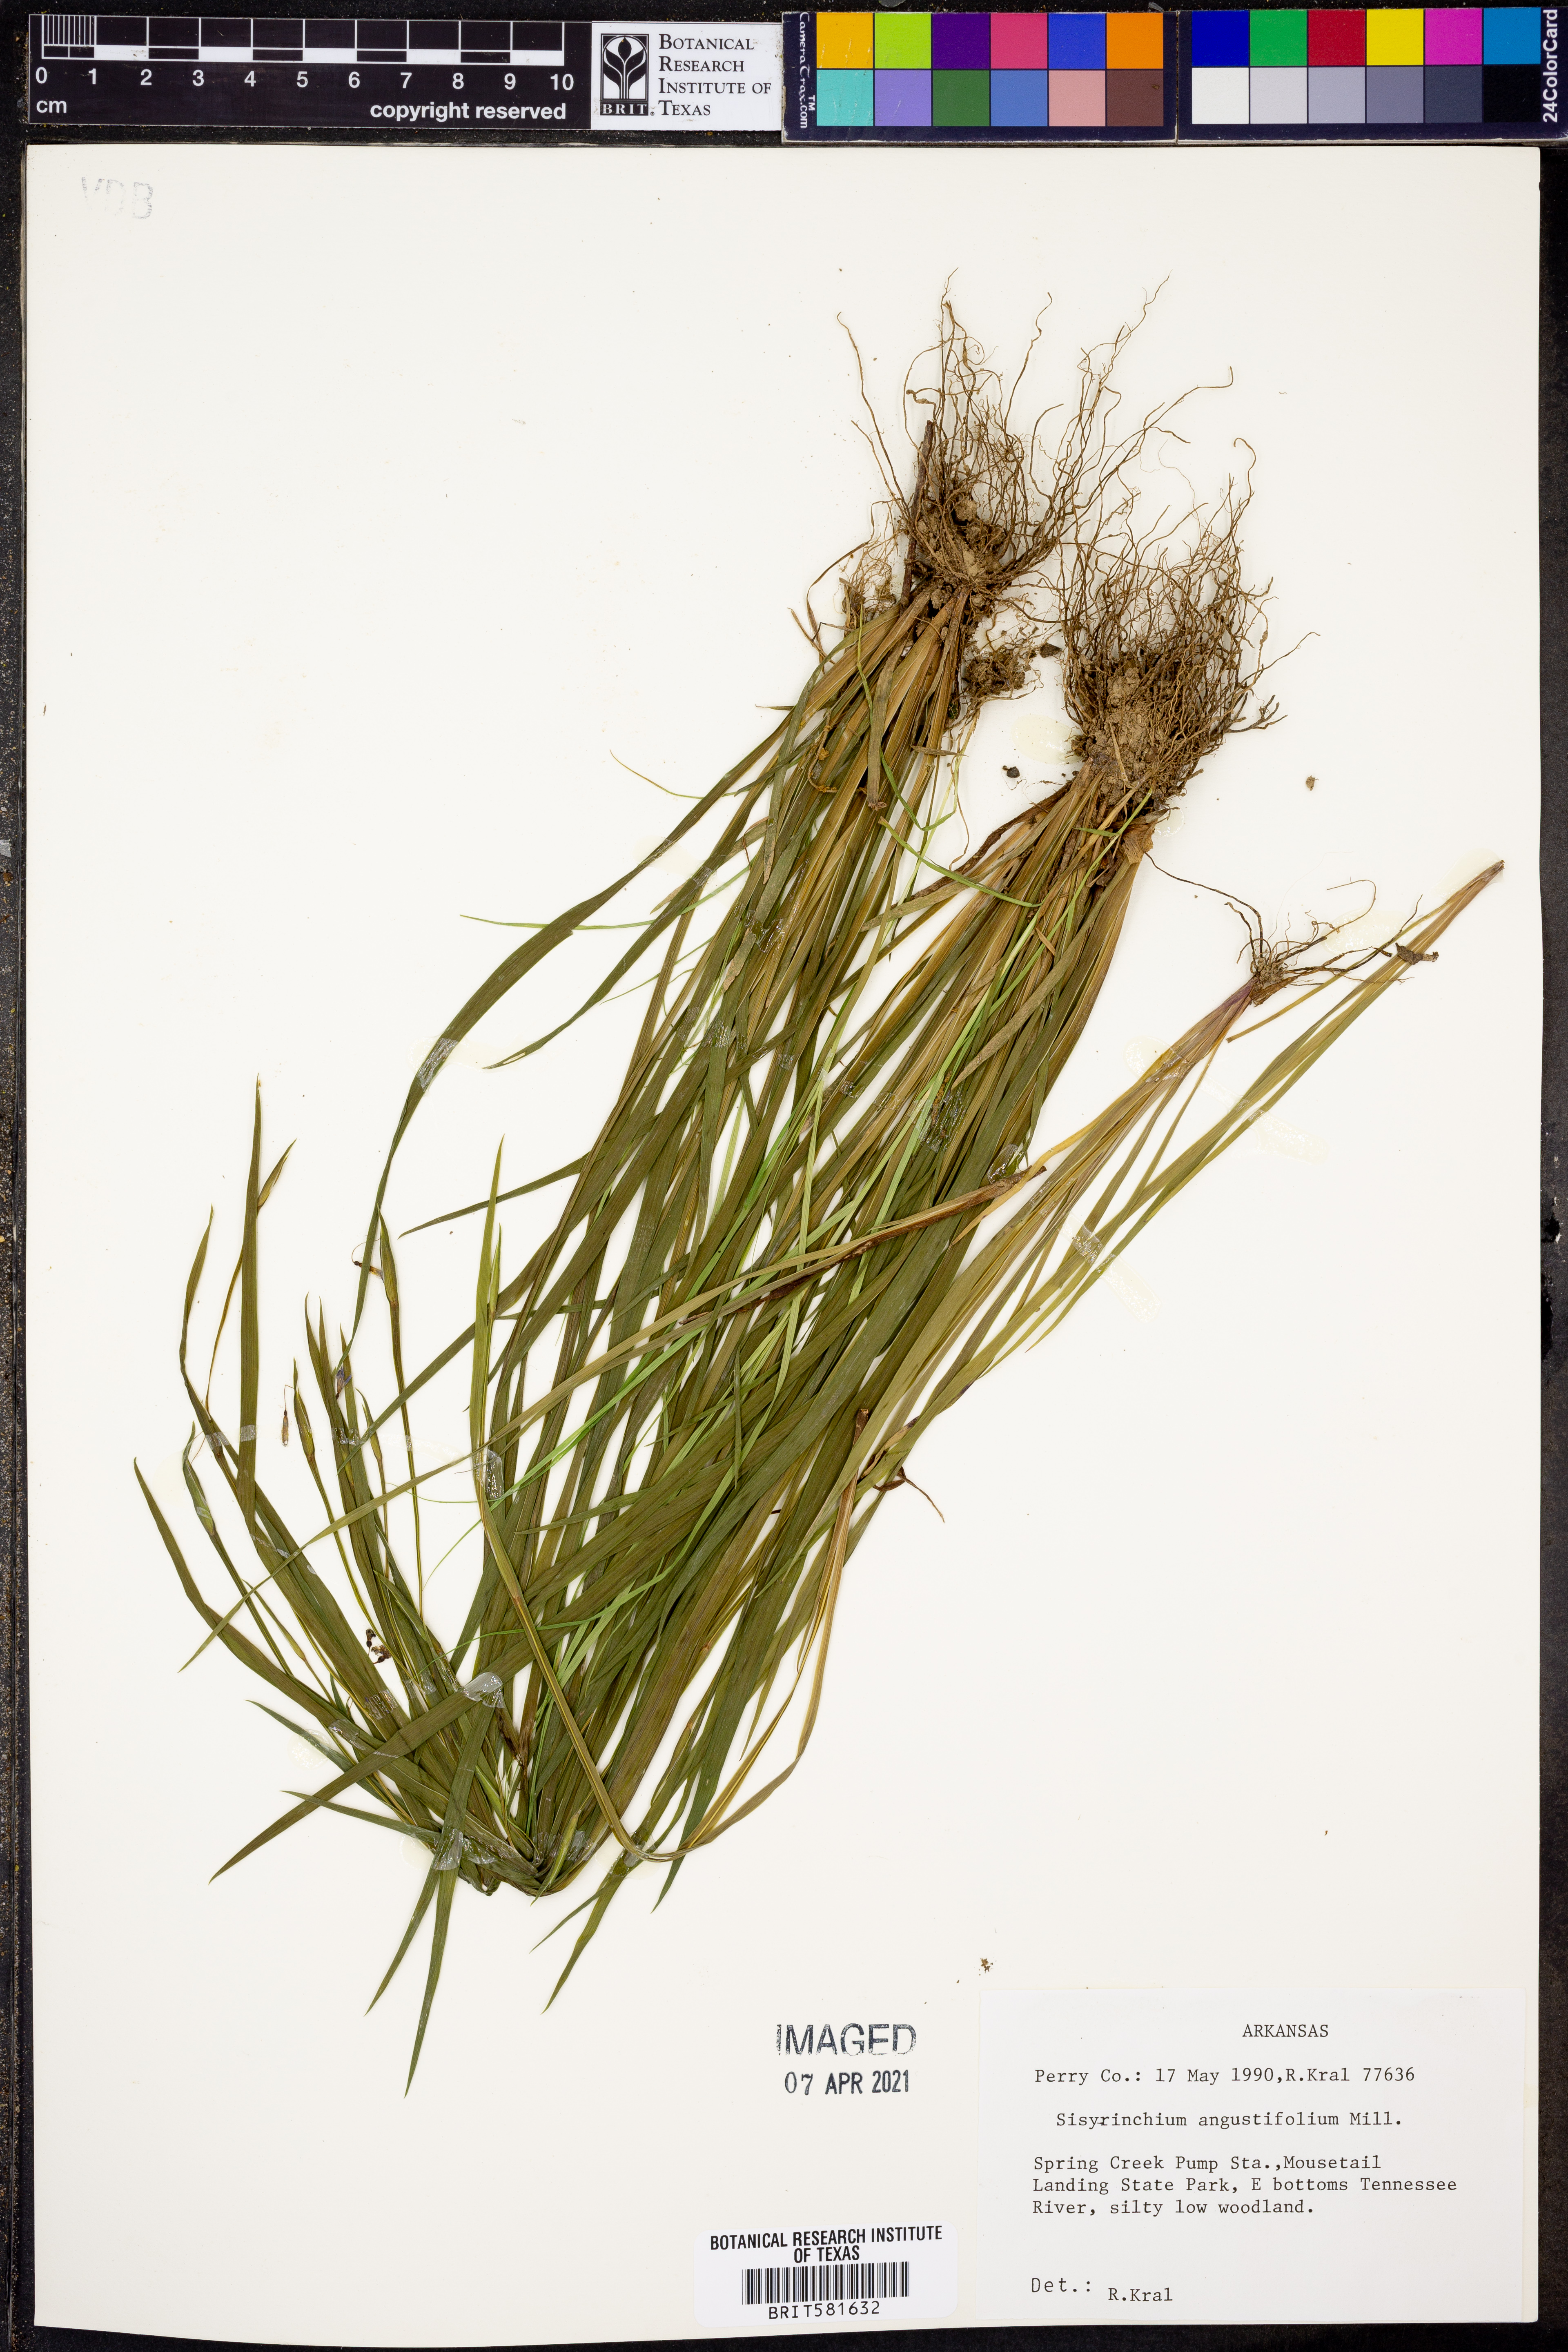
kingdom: Plantae
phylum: Tracheophyta
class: Liliopsida
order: Asparagales
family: Iridaceae
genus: Sisyrinchium
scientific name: Sisyrinchium angustifolium
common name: Narrow-leaf blue-eyed-grass
